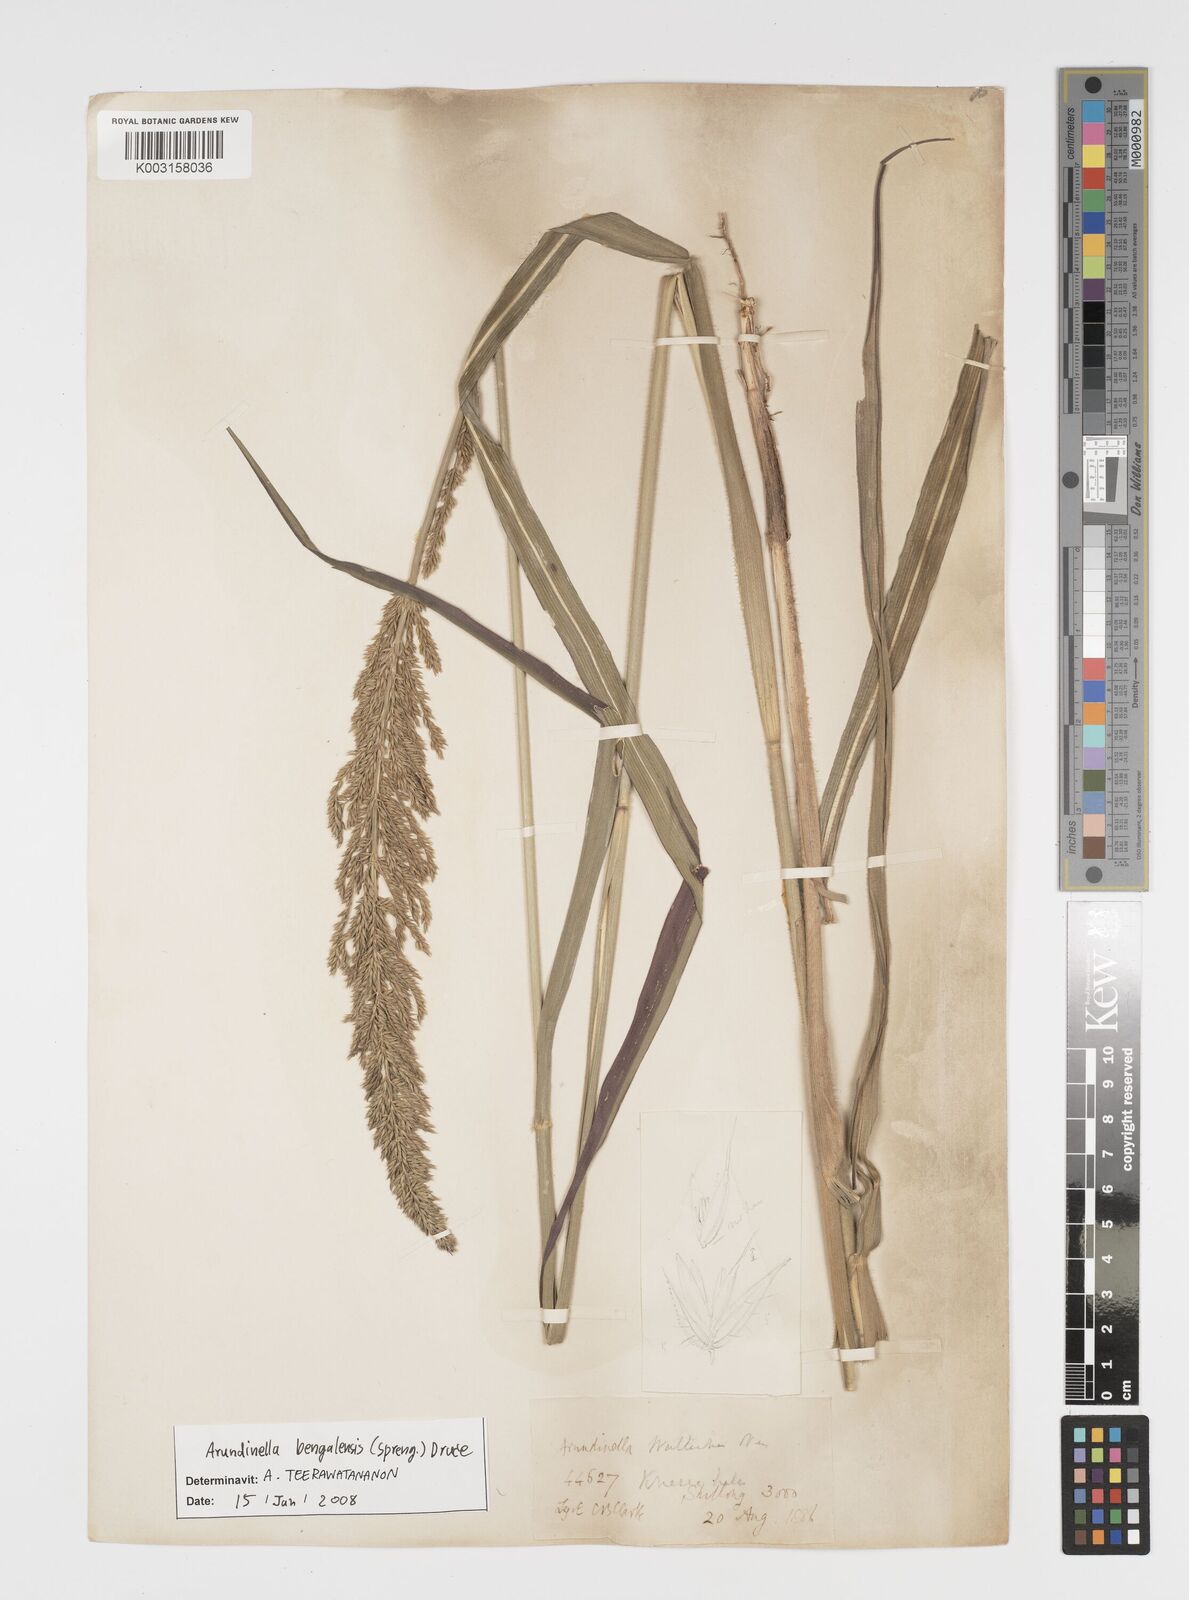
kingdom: Plantae
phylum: Tracheophyta
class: Liliopsida
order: Poales
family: Poaceae
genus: Arundinella
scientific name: Arundinella bengalensis
